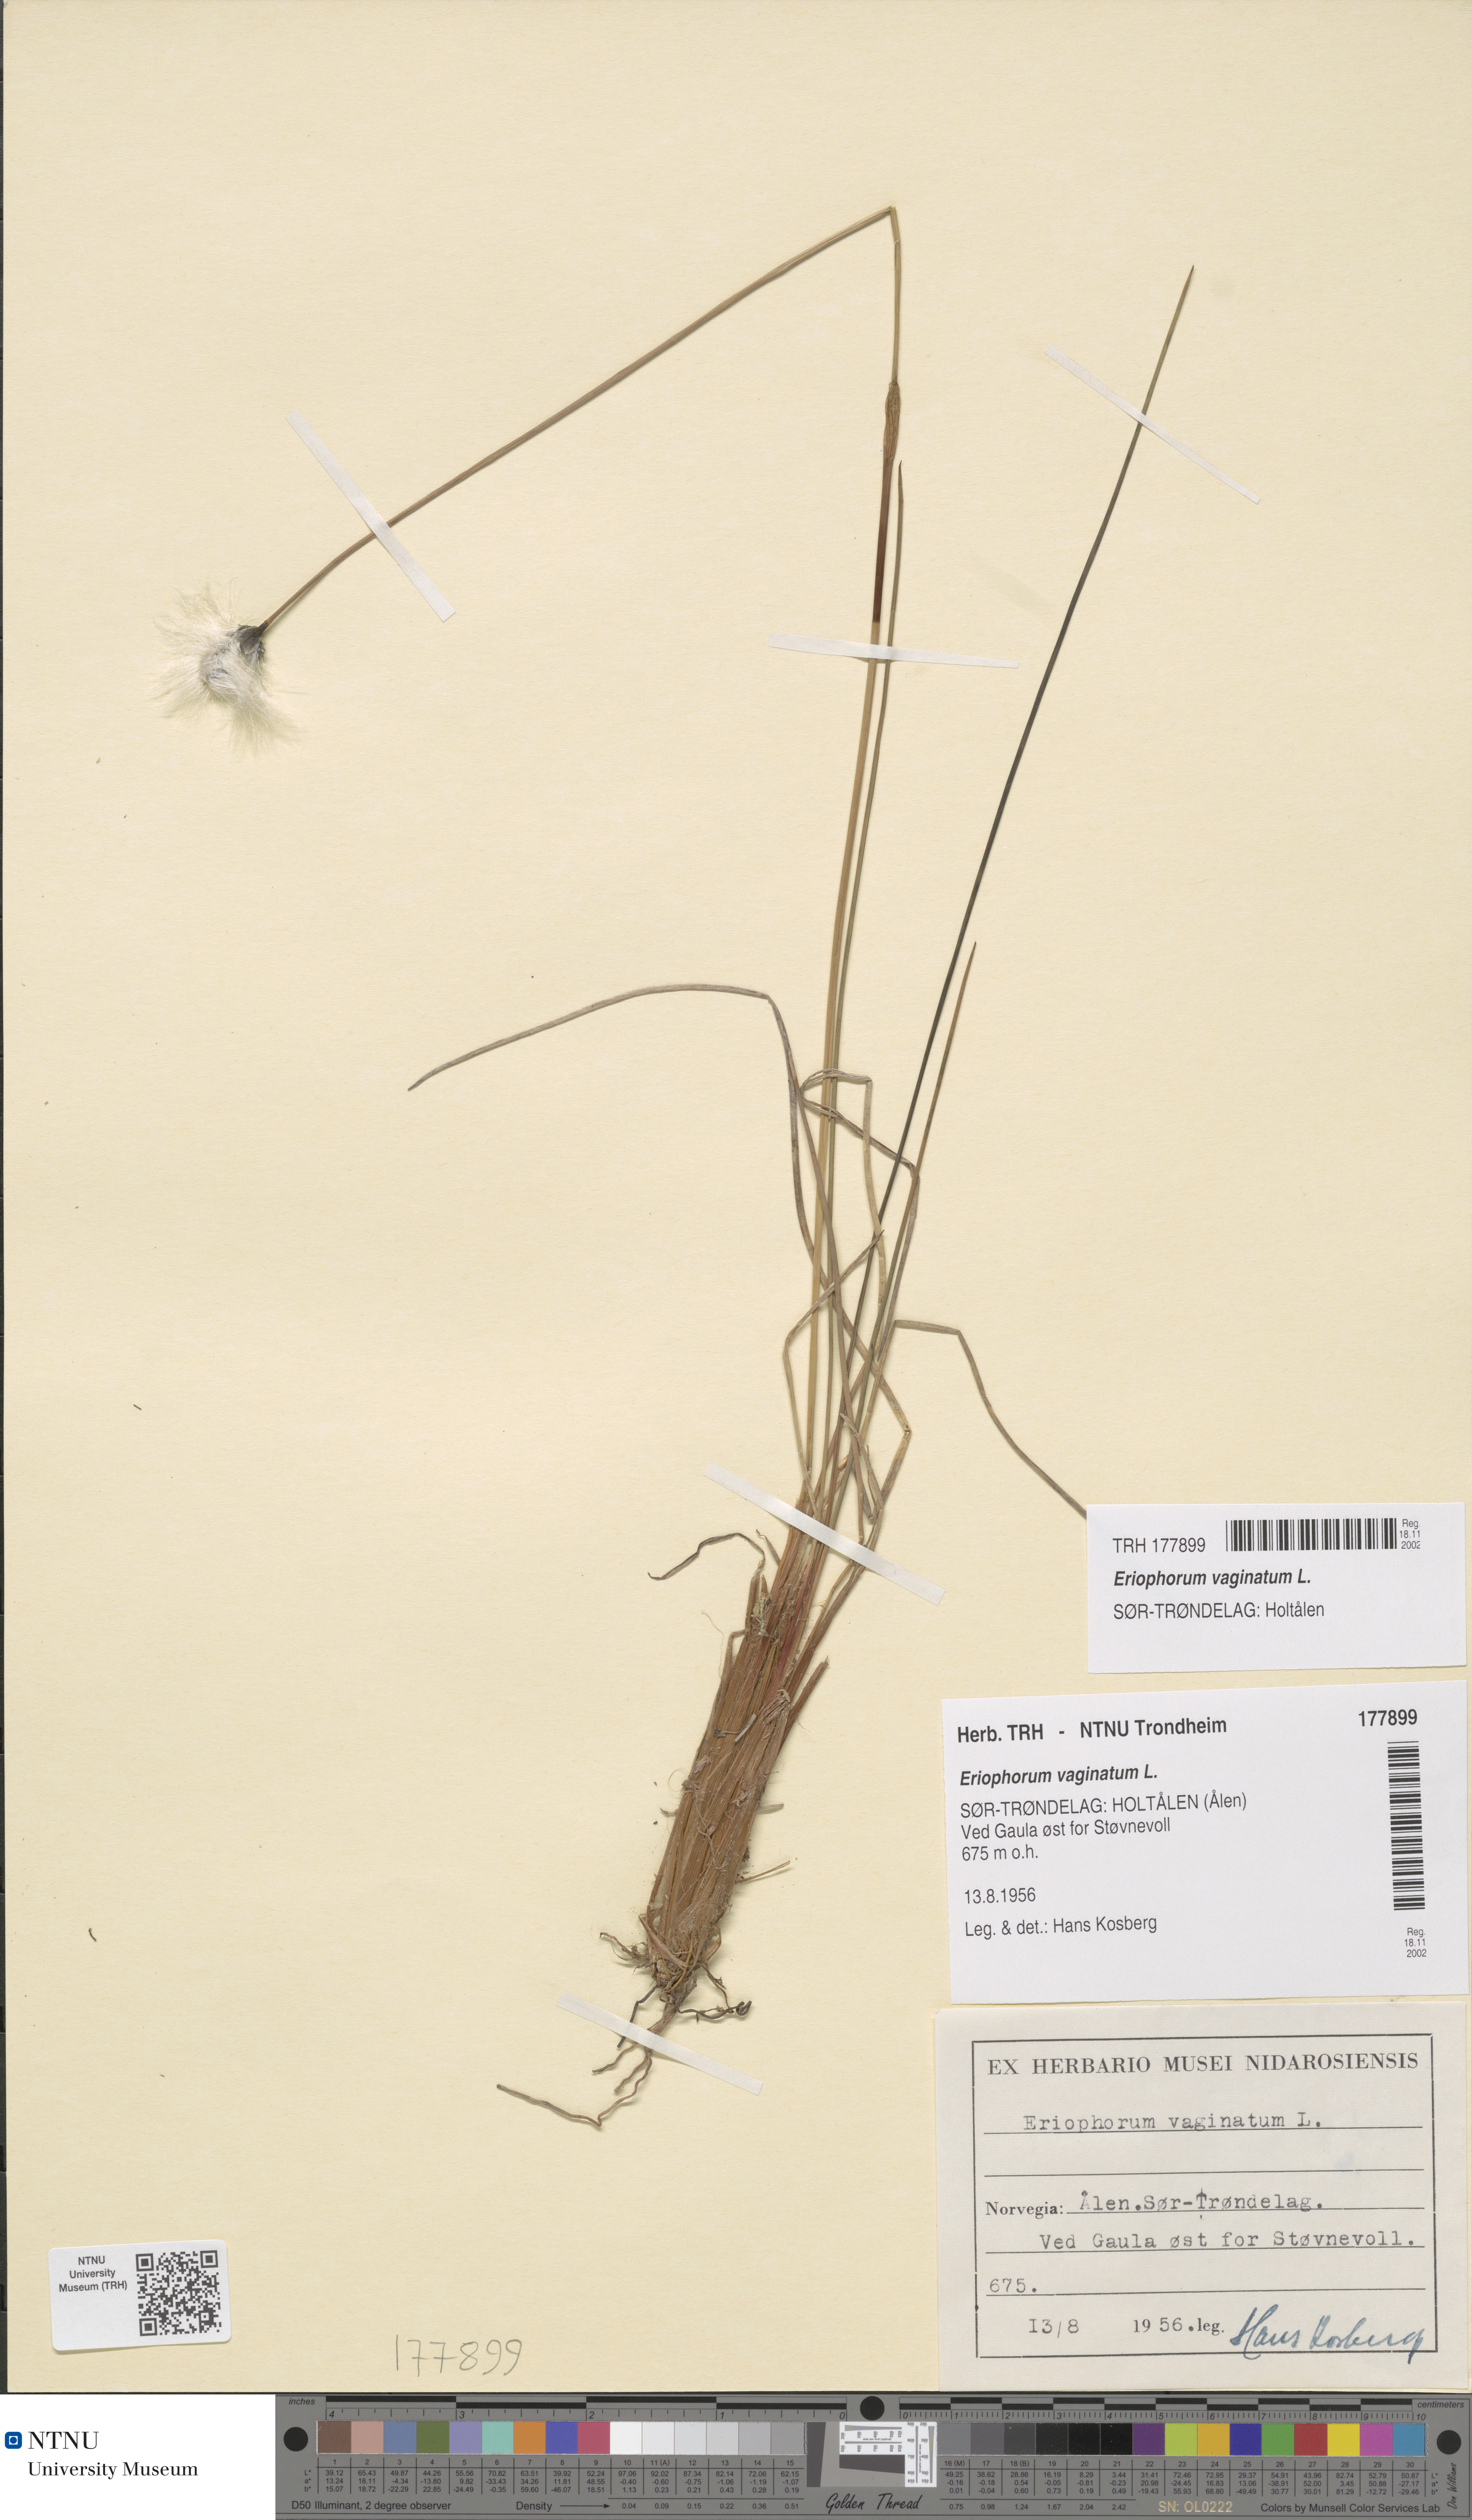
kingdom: Plantae
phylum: Tracheophyta
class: Liliopsida
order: Poales
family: Cyperaceae
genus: Eriophorum
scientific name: Eriophorum vaginatum
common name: Hare's-tail cottongrass
